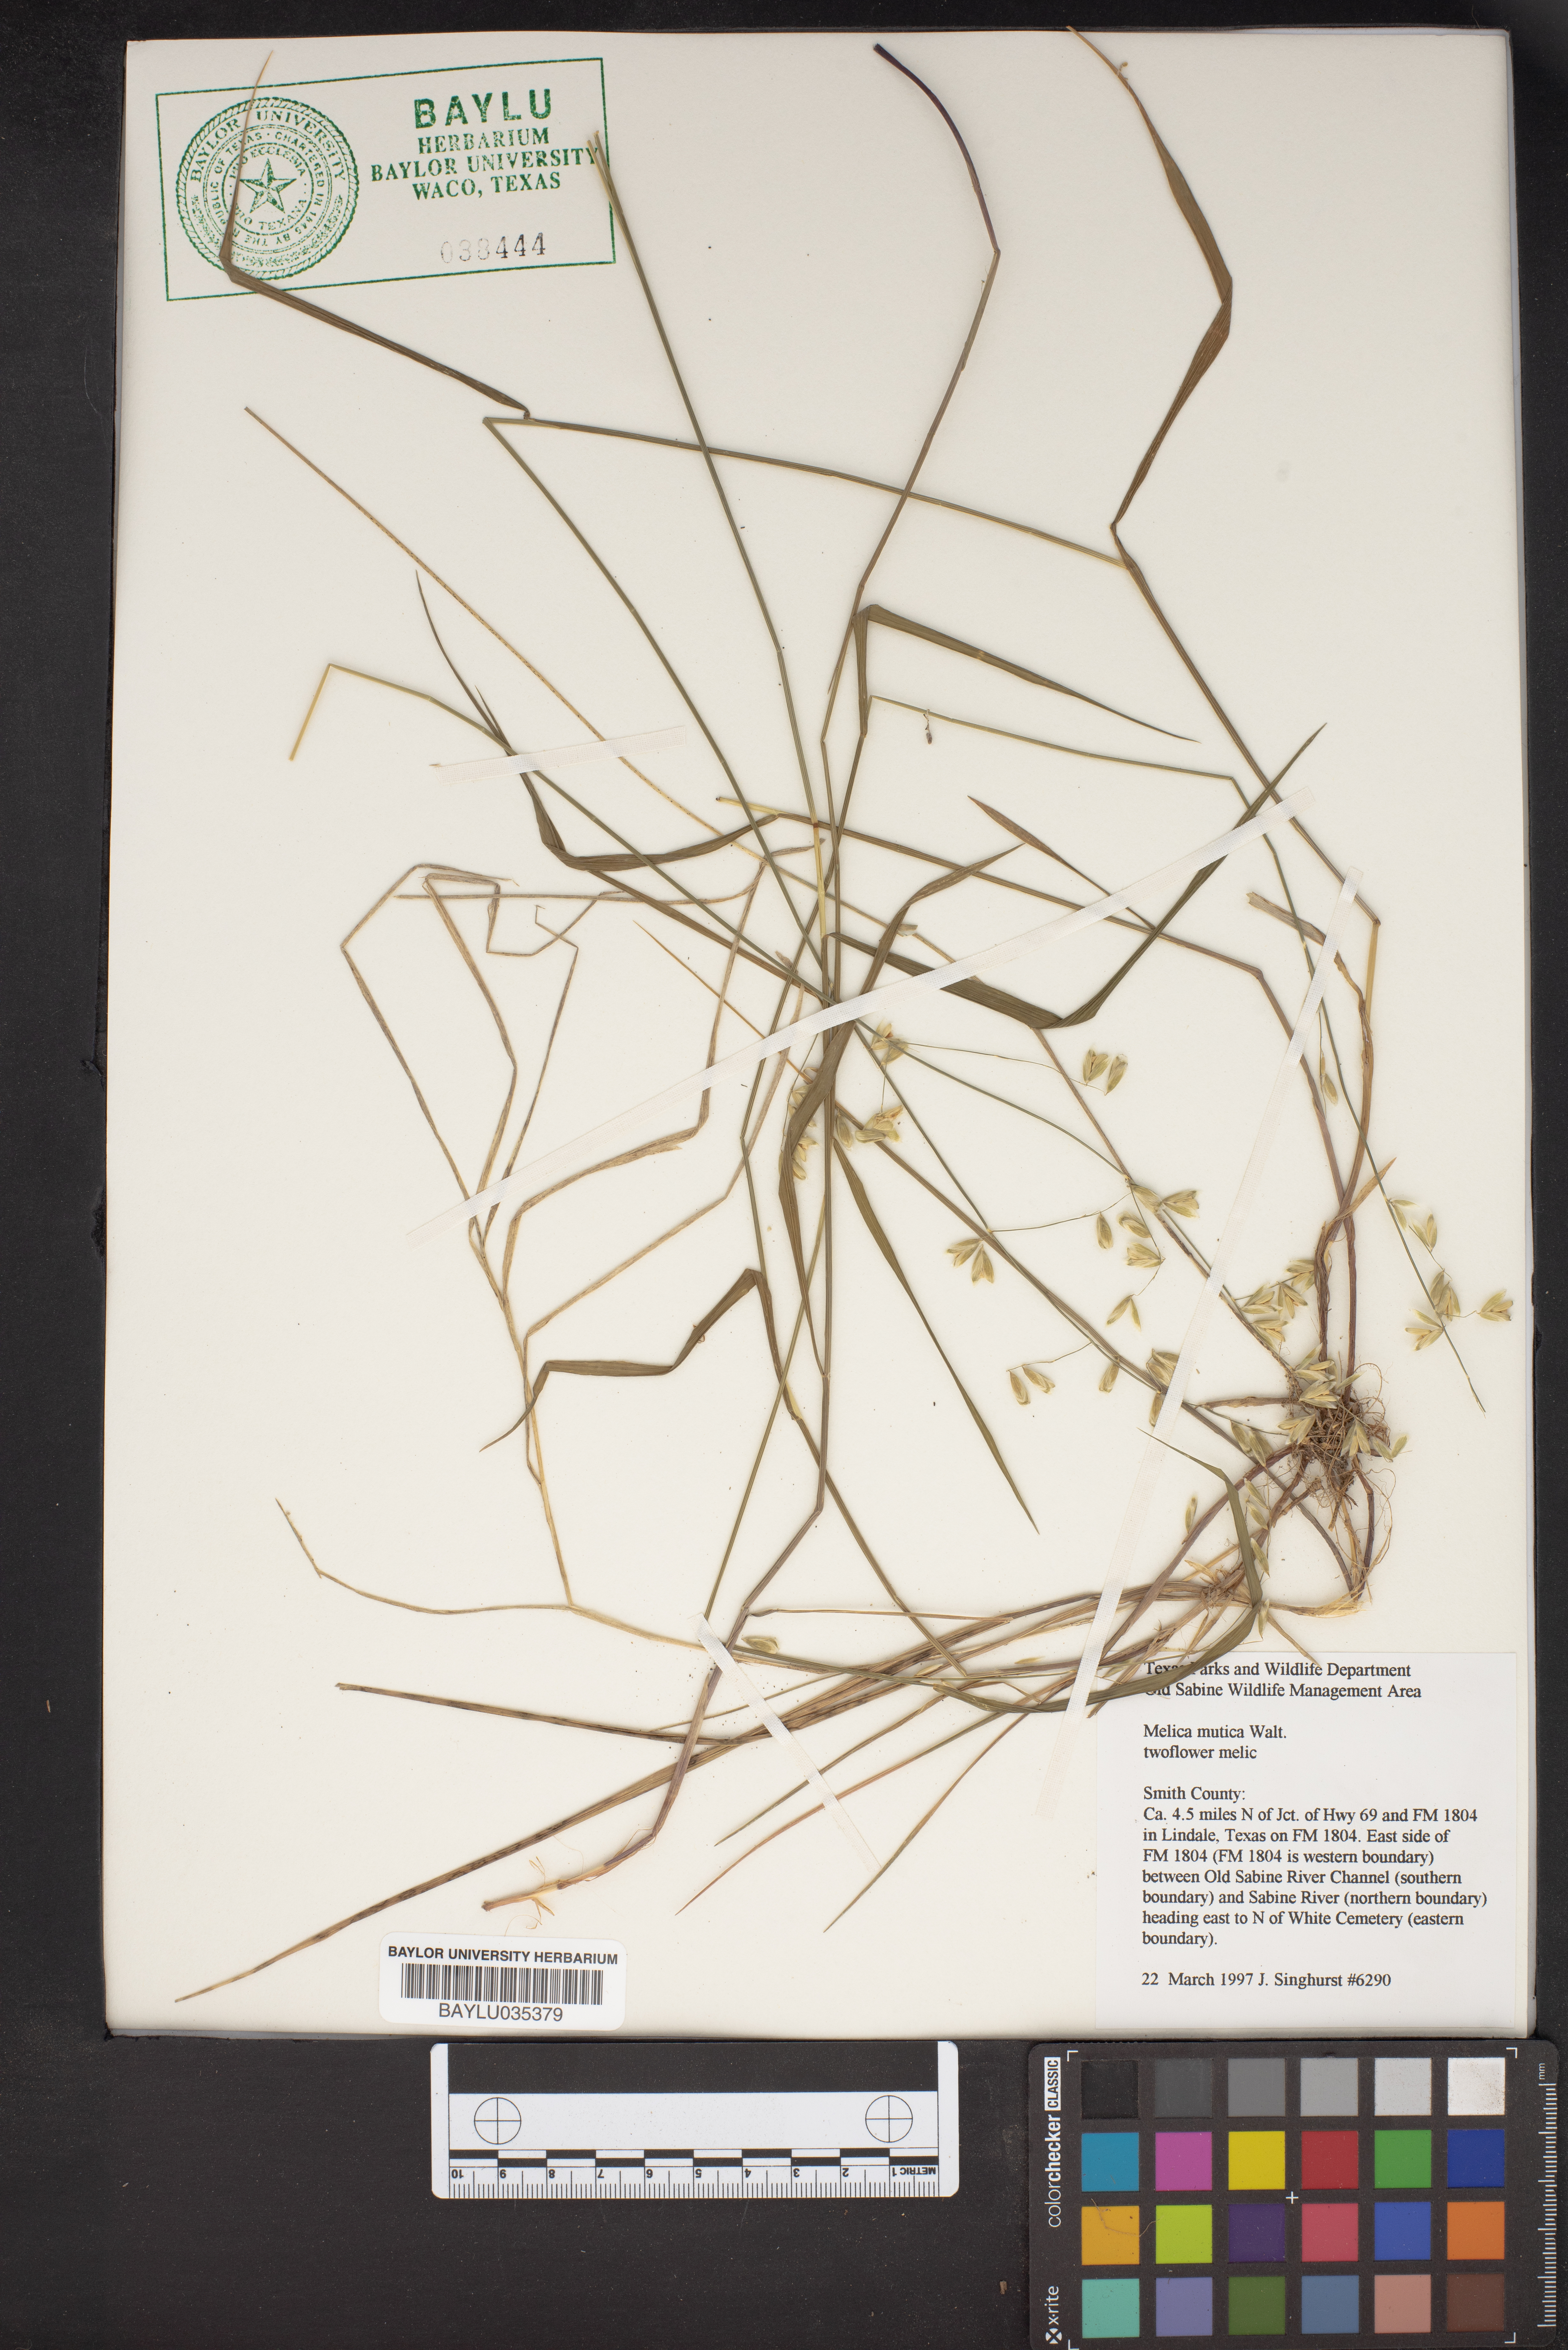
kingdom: Plantae
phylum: Tracheophyta
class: Liliopsida
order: Poales
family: Poaceae
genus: Melica
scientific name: Melica mutica
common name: Two-flower melic
